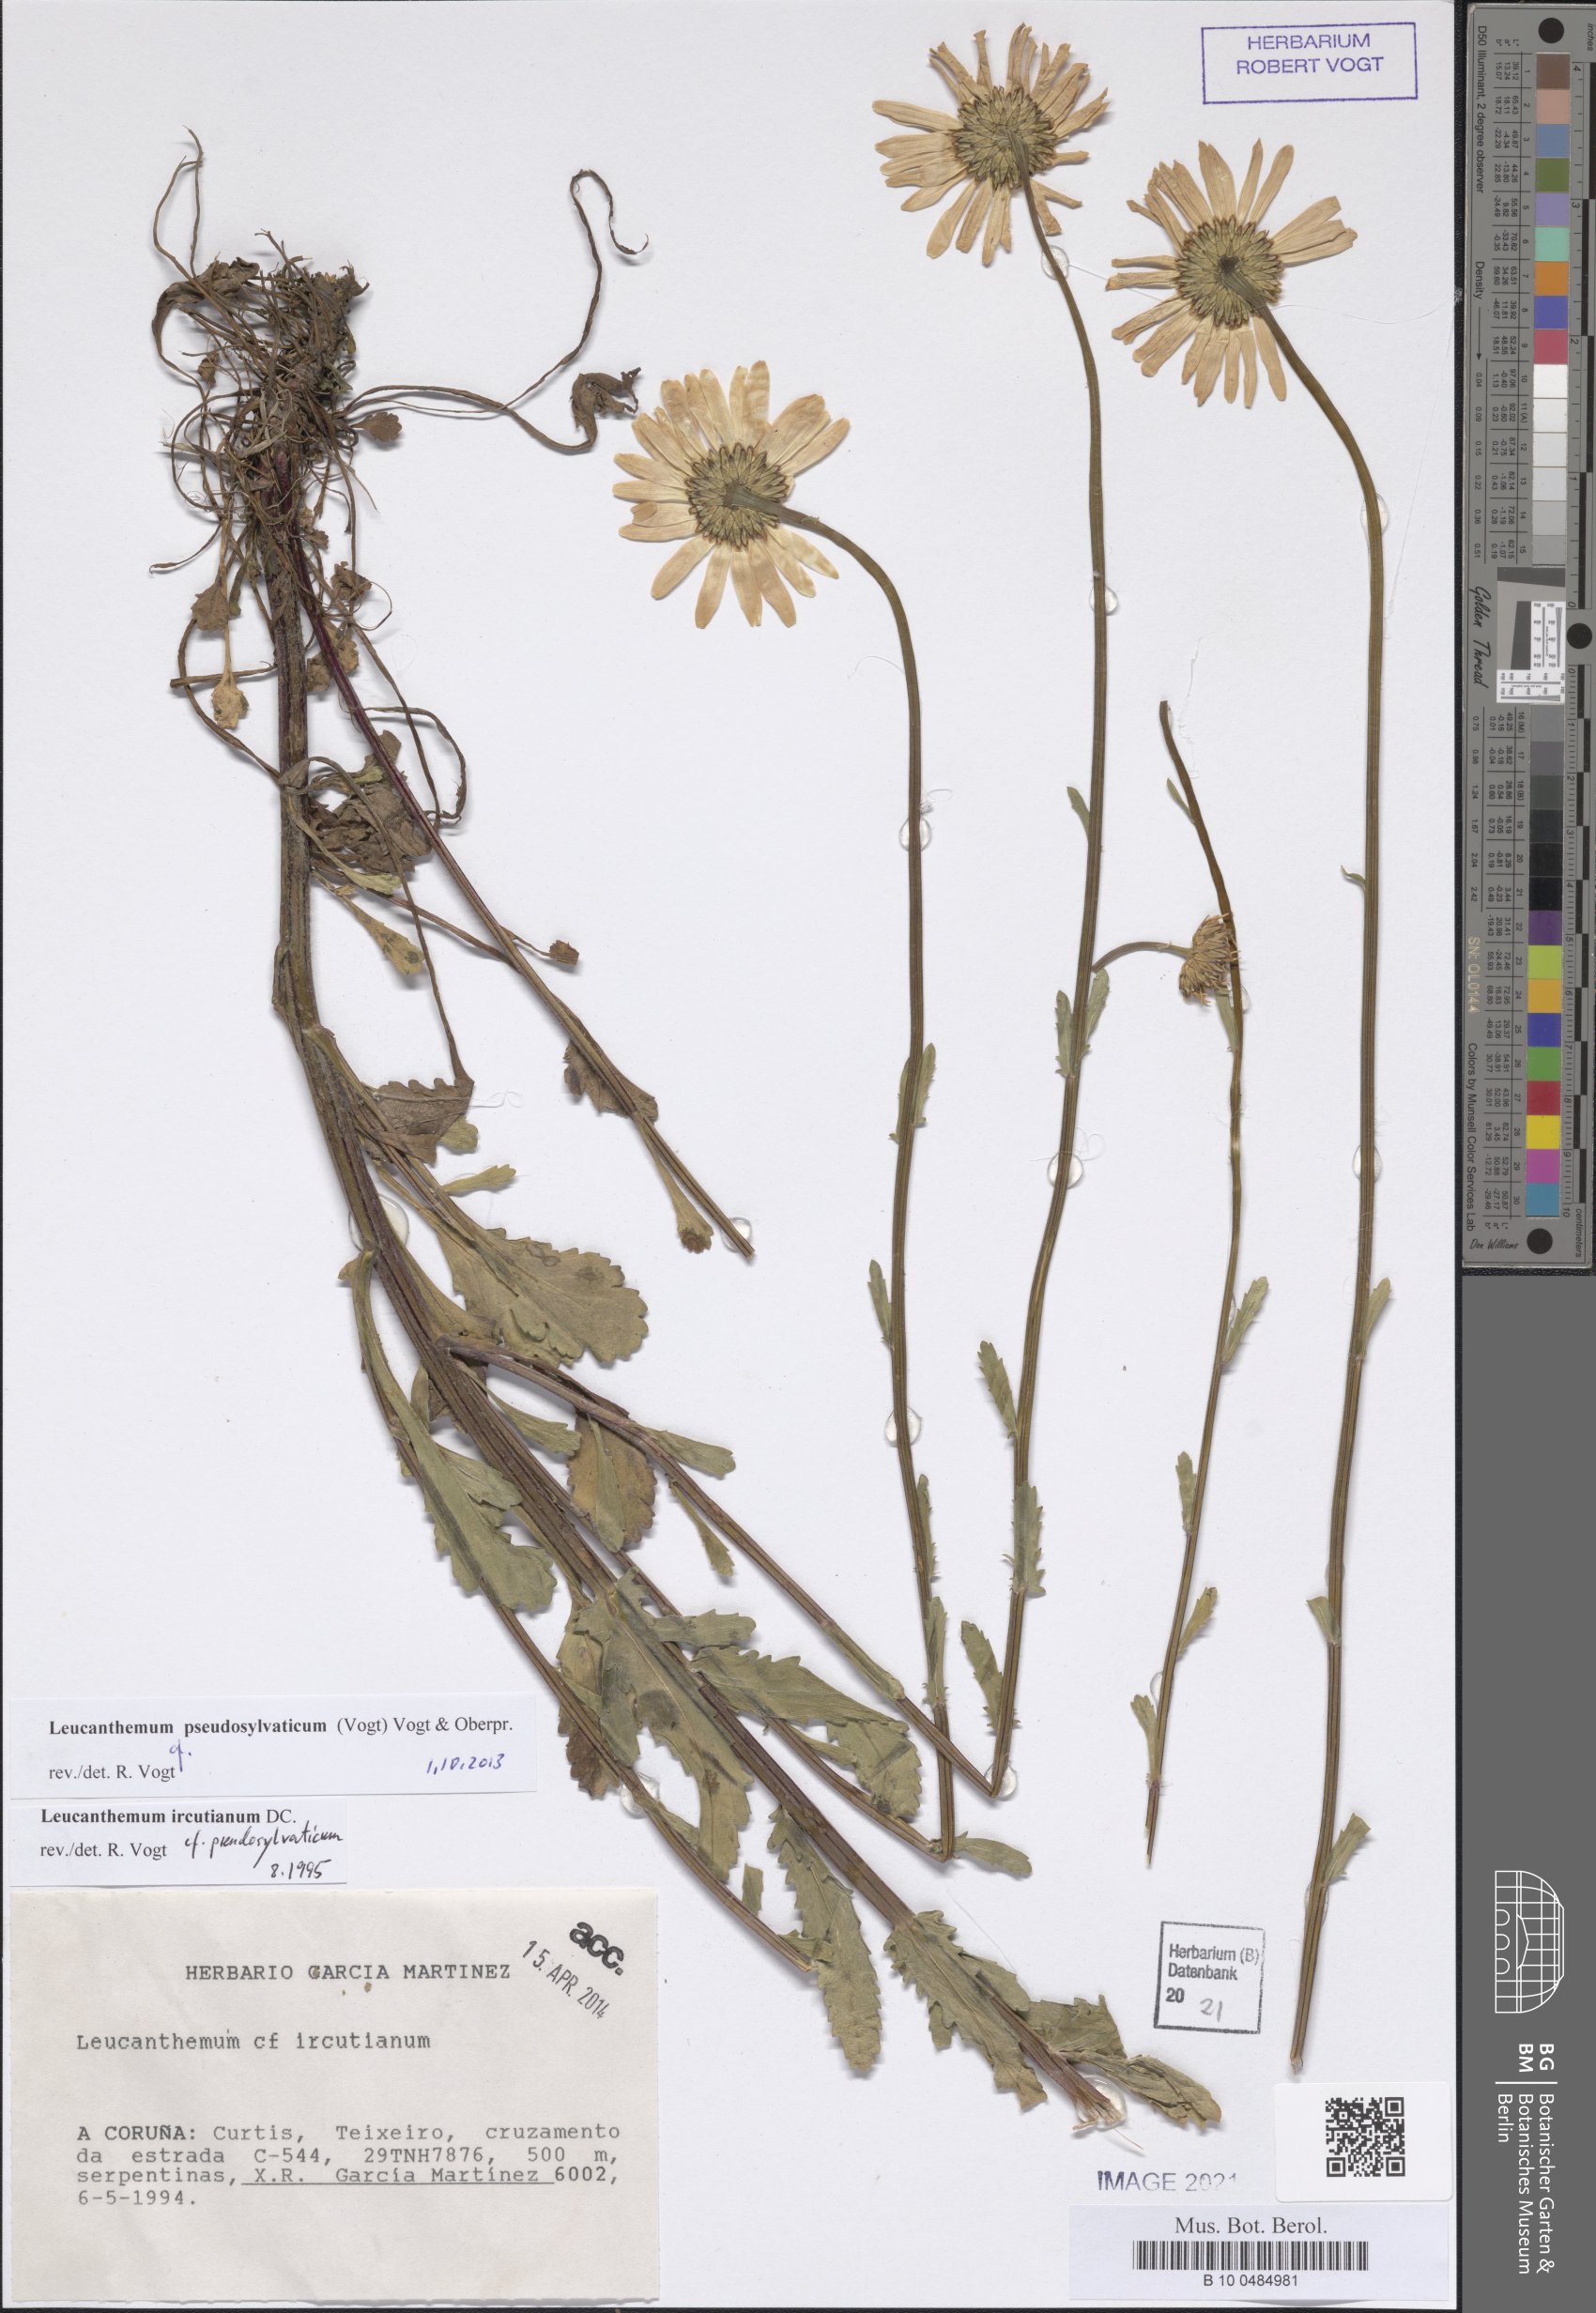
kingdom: Plantae
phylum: Tracheophyta
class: Magnoliopsida
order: Asterales
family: Asteraceae
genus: Leucanthemum
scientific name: Leucanthemum pseudosylvaticum
